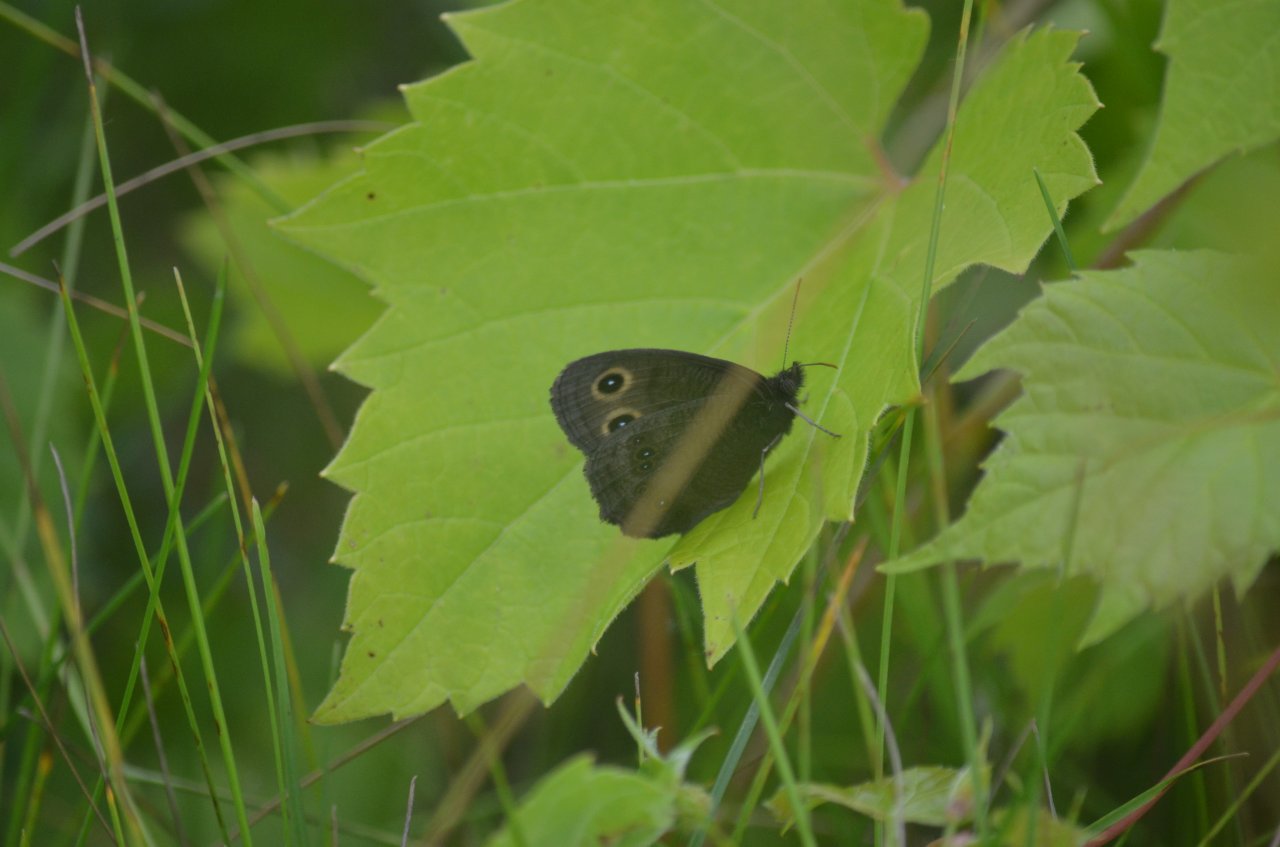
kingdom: Animalia
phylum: Arthropoda
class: Insecta
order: Lepidoptera
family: Nymphalidae
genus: Cercyonis
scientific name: Cercyonis pegala
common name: Common Wood-Nymph
